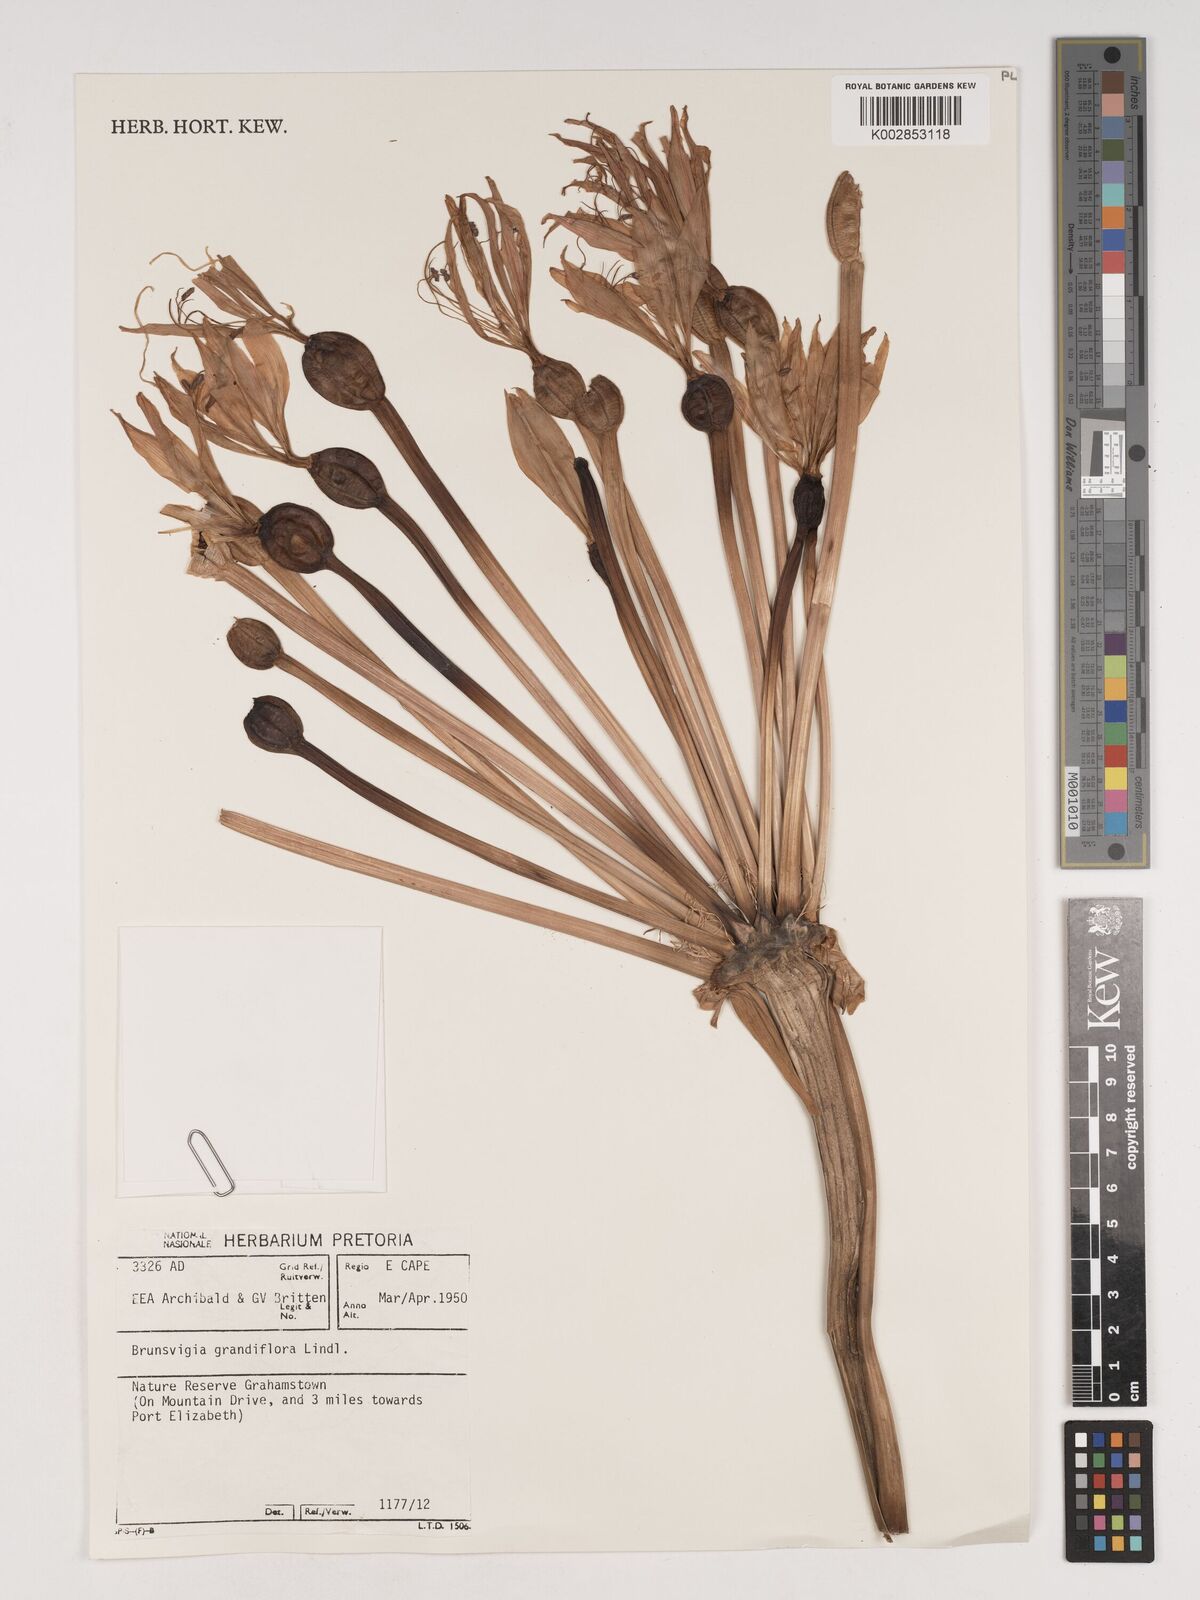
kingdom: Plantae
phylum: Tracheophyta
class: Liliopsida
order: Asparagales
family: Amaryllidaceae
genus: Brunsvigia
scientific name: Brunsvigia grandiflora
